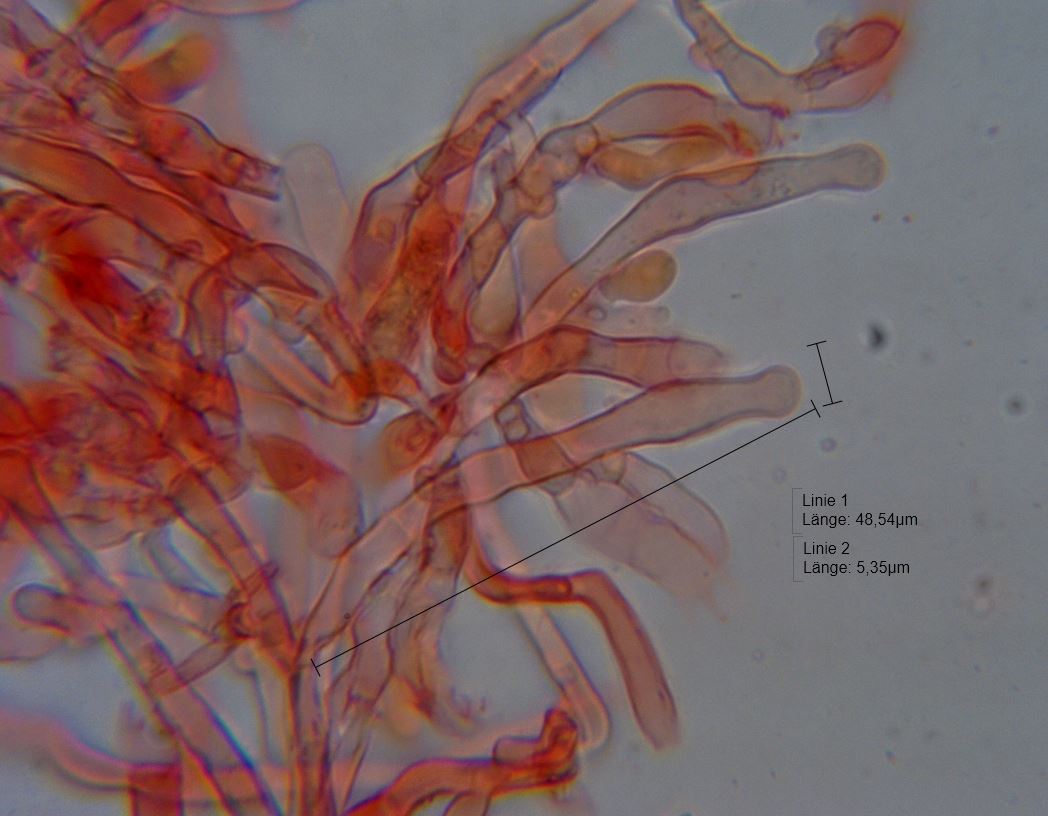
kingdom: Fungi
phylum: Basidiomycota
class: Agaricomycetes
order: Hymenochaetales
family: Hyphodontiaceae
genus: Hyphodontia
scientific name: Hyphodontia arguta
